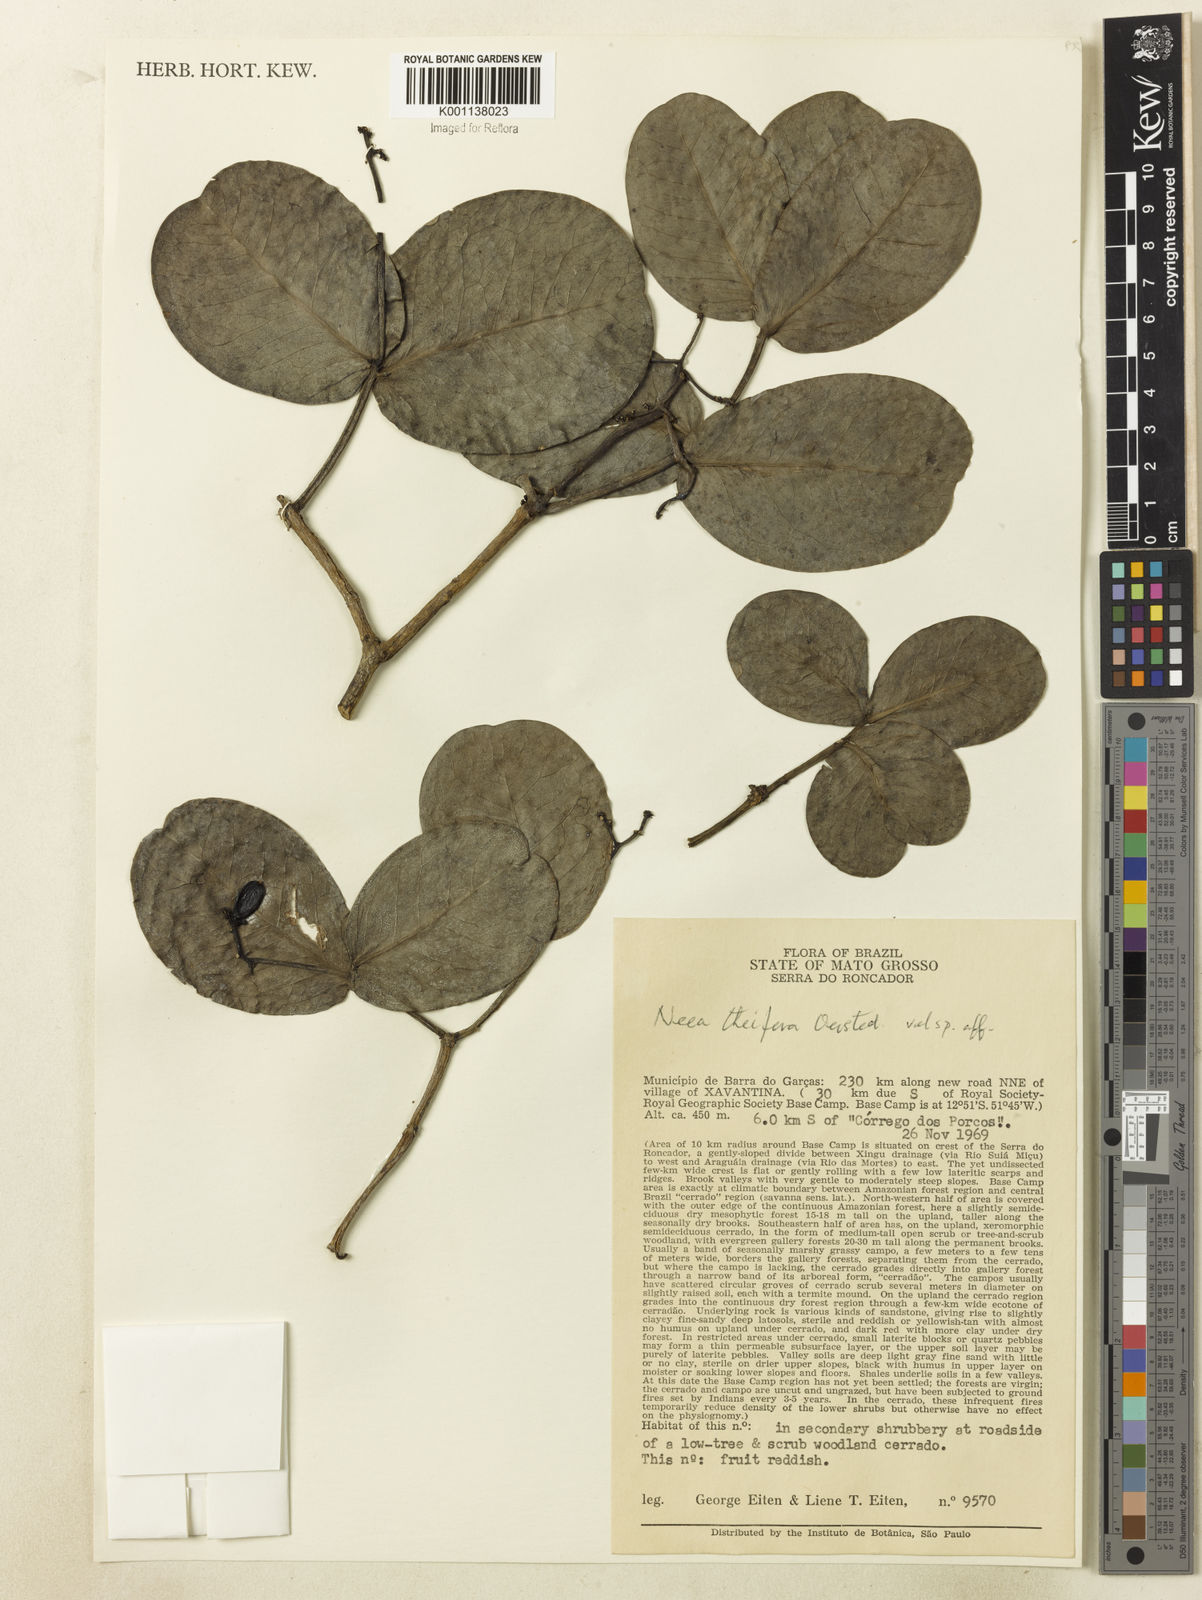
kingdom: Plantae
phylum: Tracheophyta
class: Magnoliopsida
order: Caryophyllales
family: Nyctaginaceae
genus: Neea
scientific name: Neea theifera
